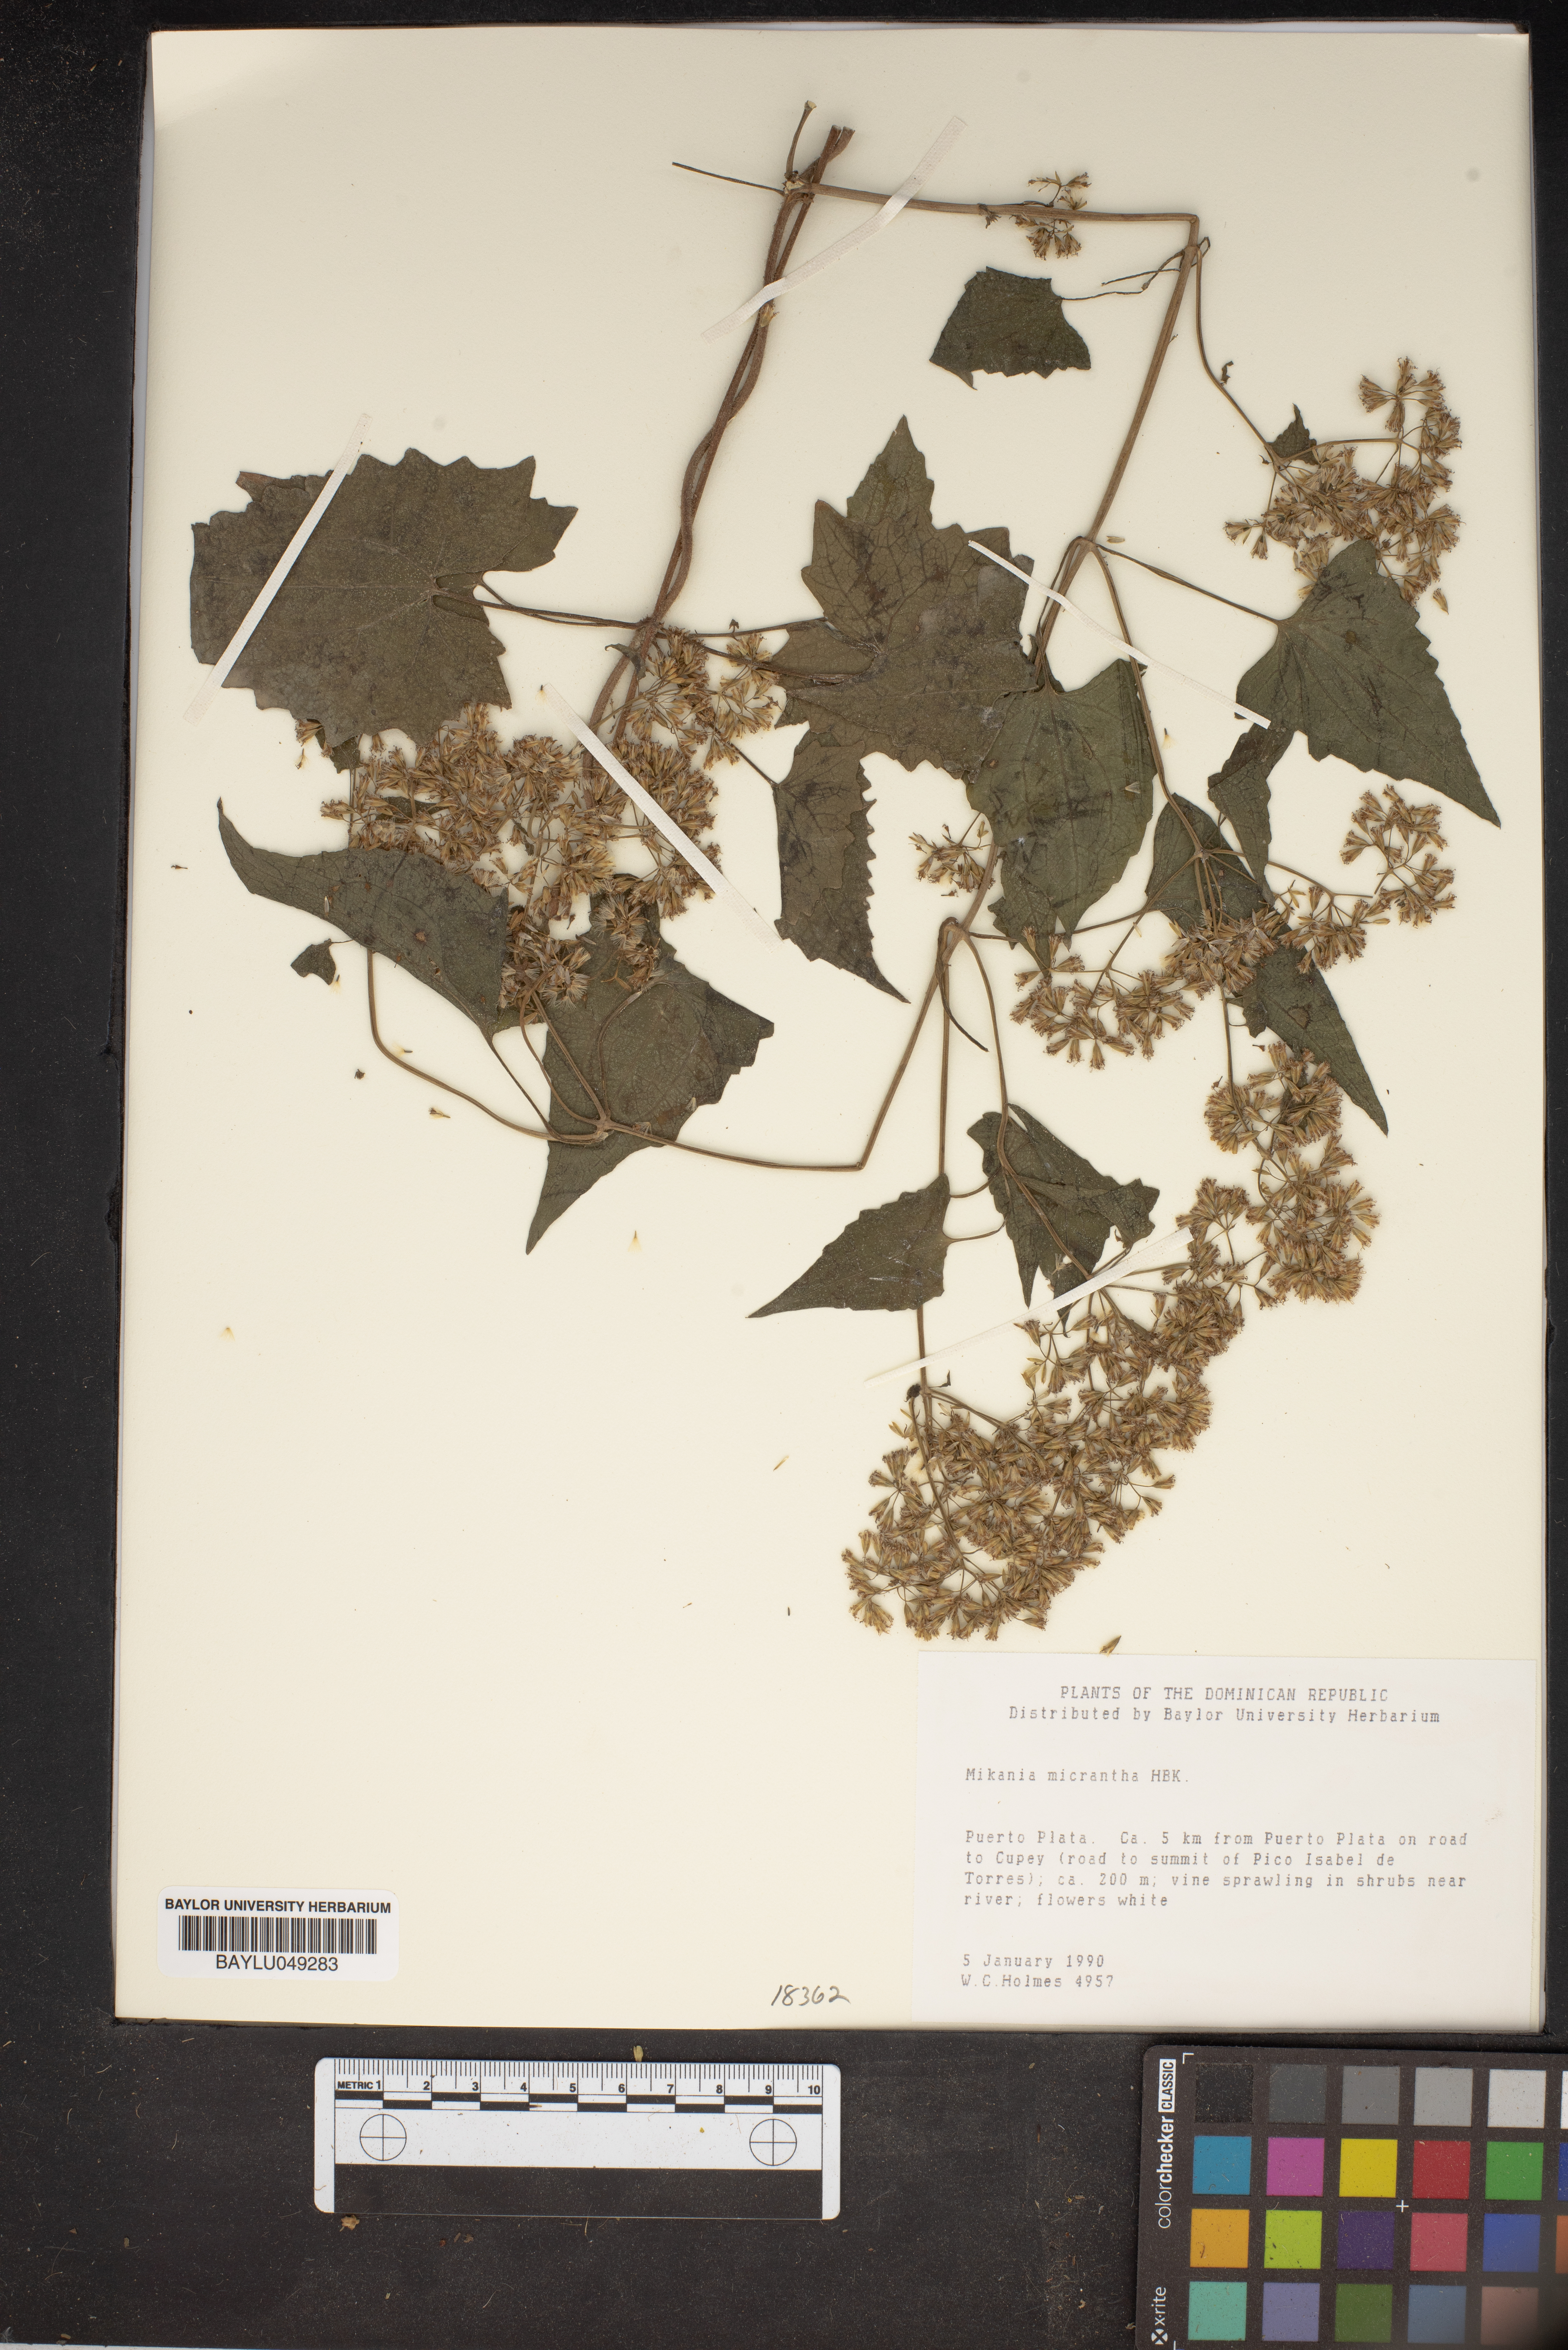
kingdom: Plantae
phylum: Tracheophyta
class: Magnoliopsida
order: Asterales
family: Asteraceae
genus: Mikania
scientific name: Mikania micrantha
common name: Mile-a-minute
